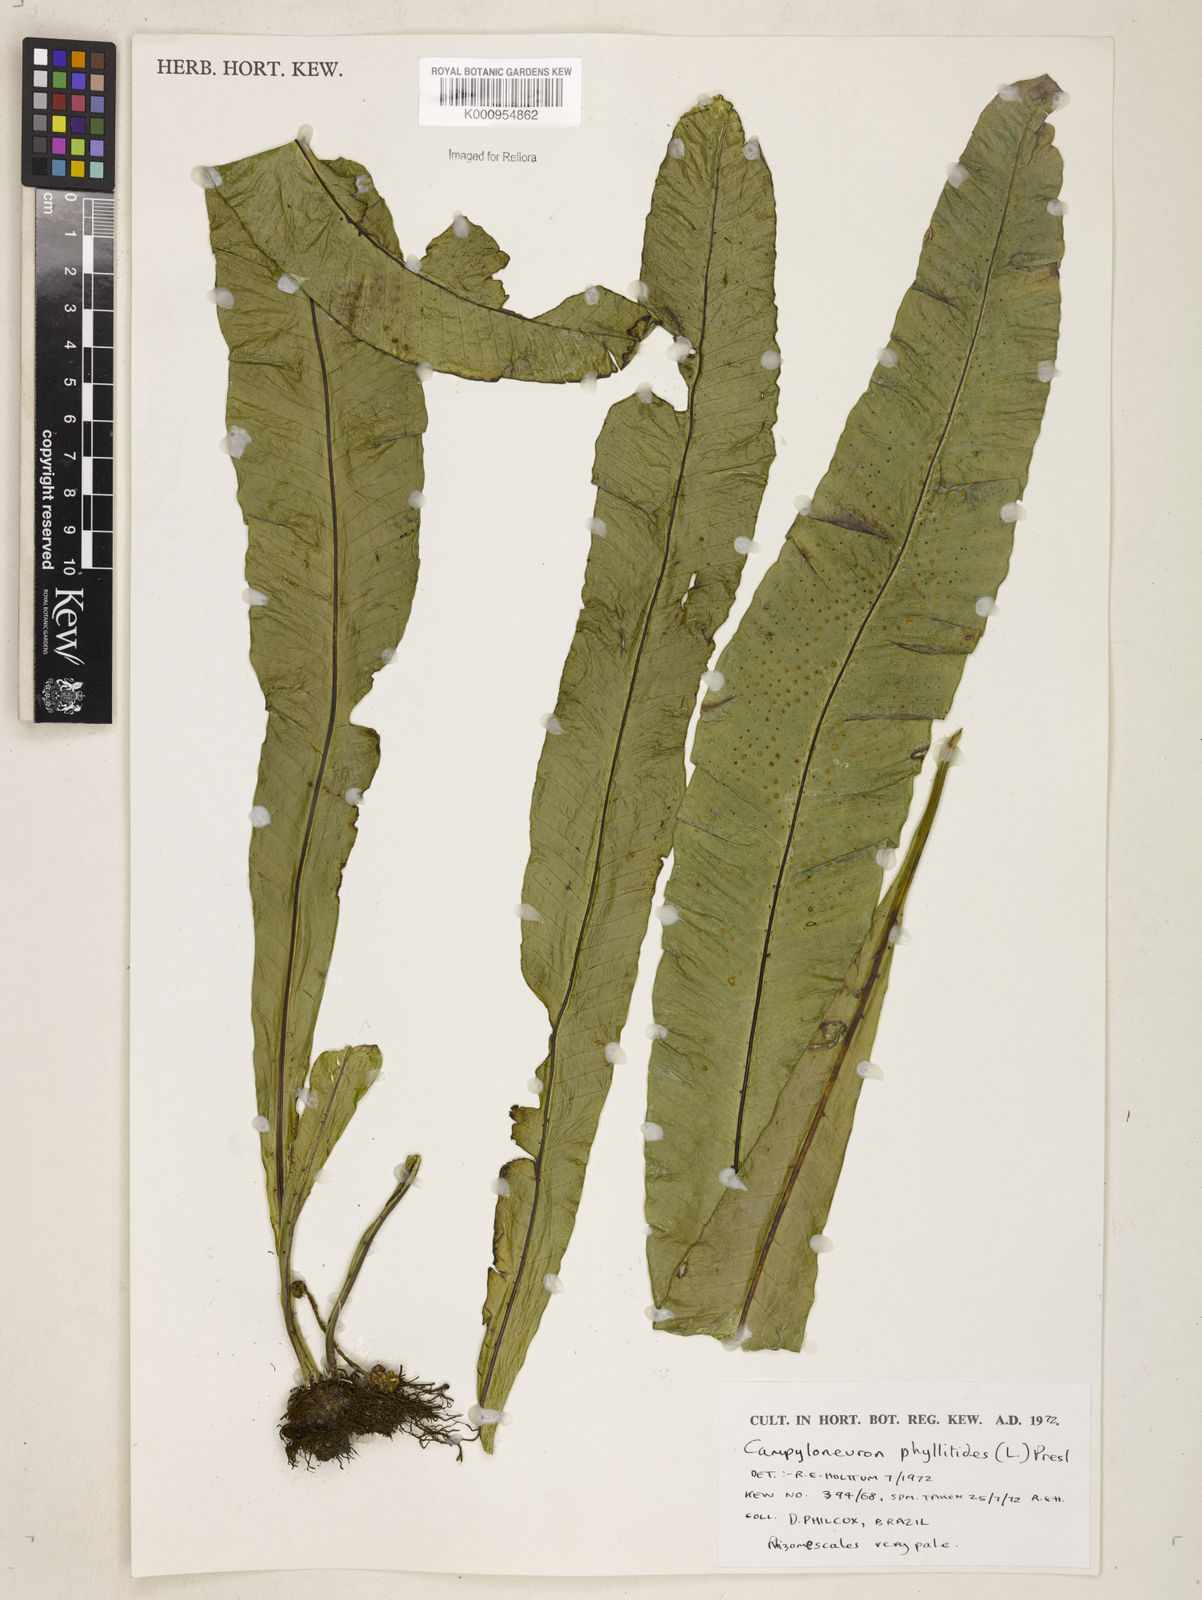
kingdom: Plantae
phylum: Tracheophyta
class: Polypodiopsida
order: Polypodiales
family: Polypodiaceae
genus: Campyloneurum
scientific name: Campyloneurum phyllitidis
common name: Cow-tongue fern
